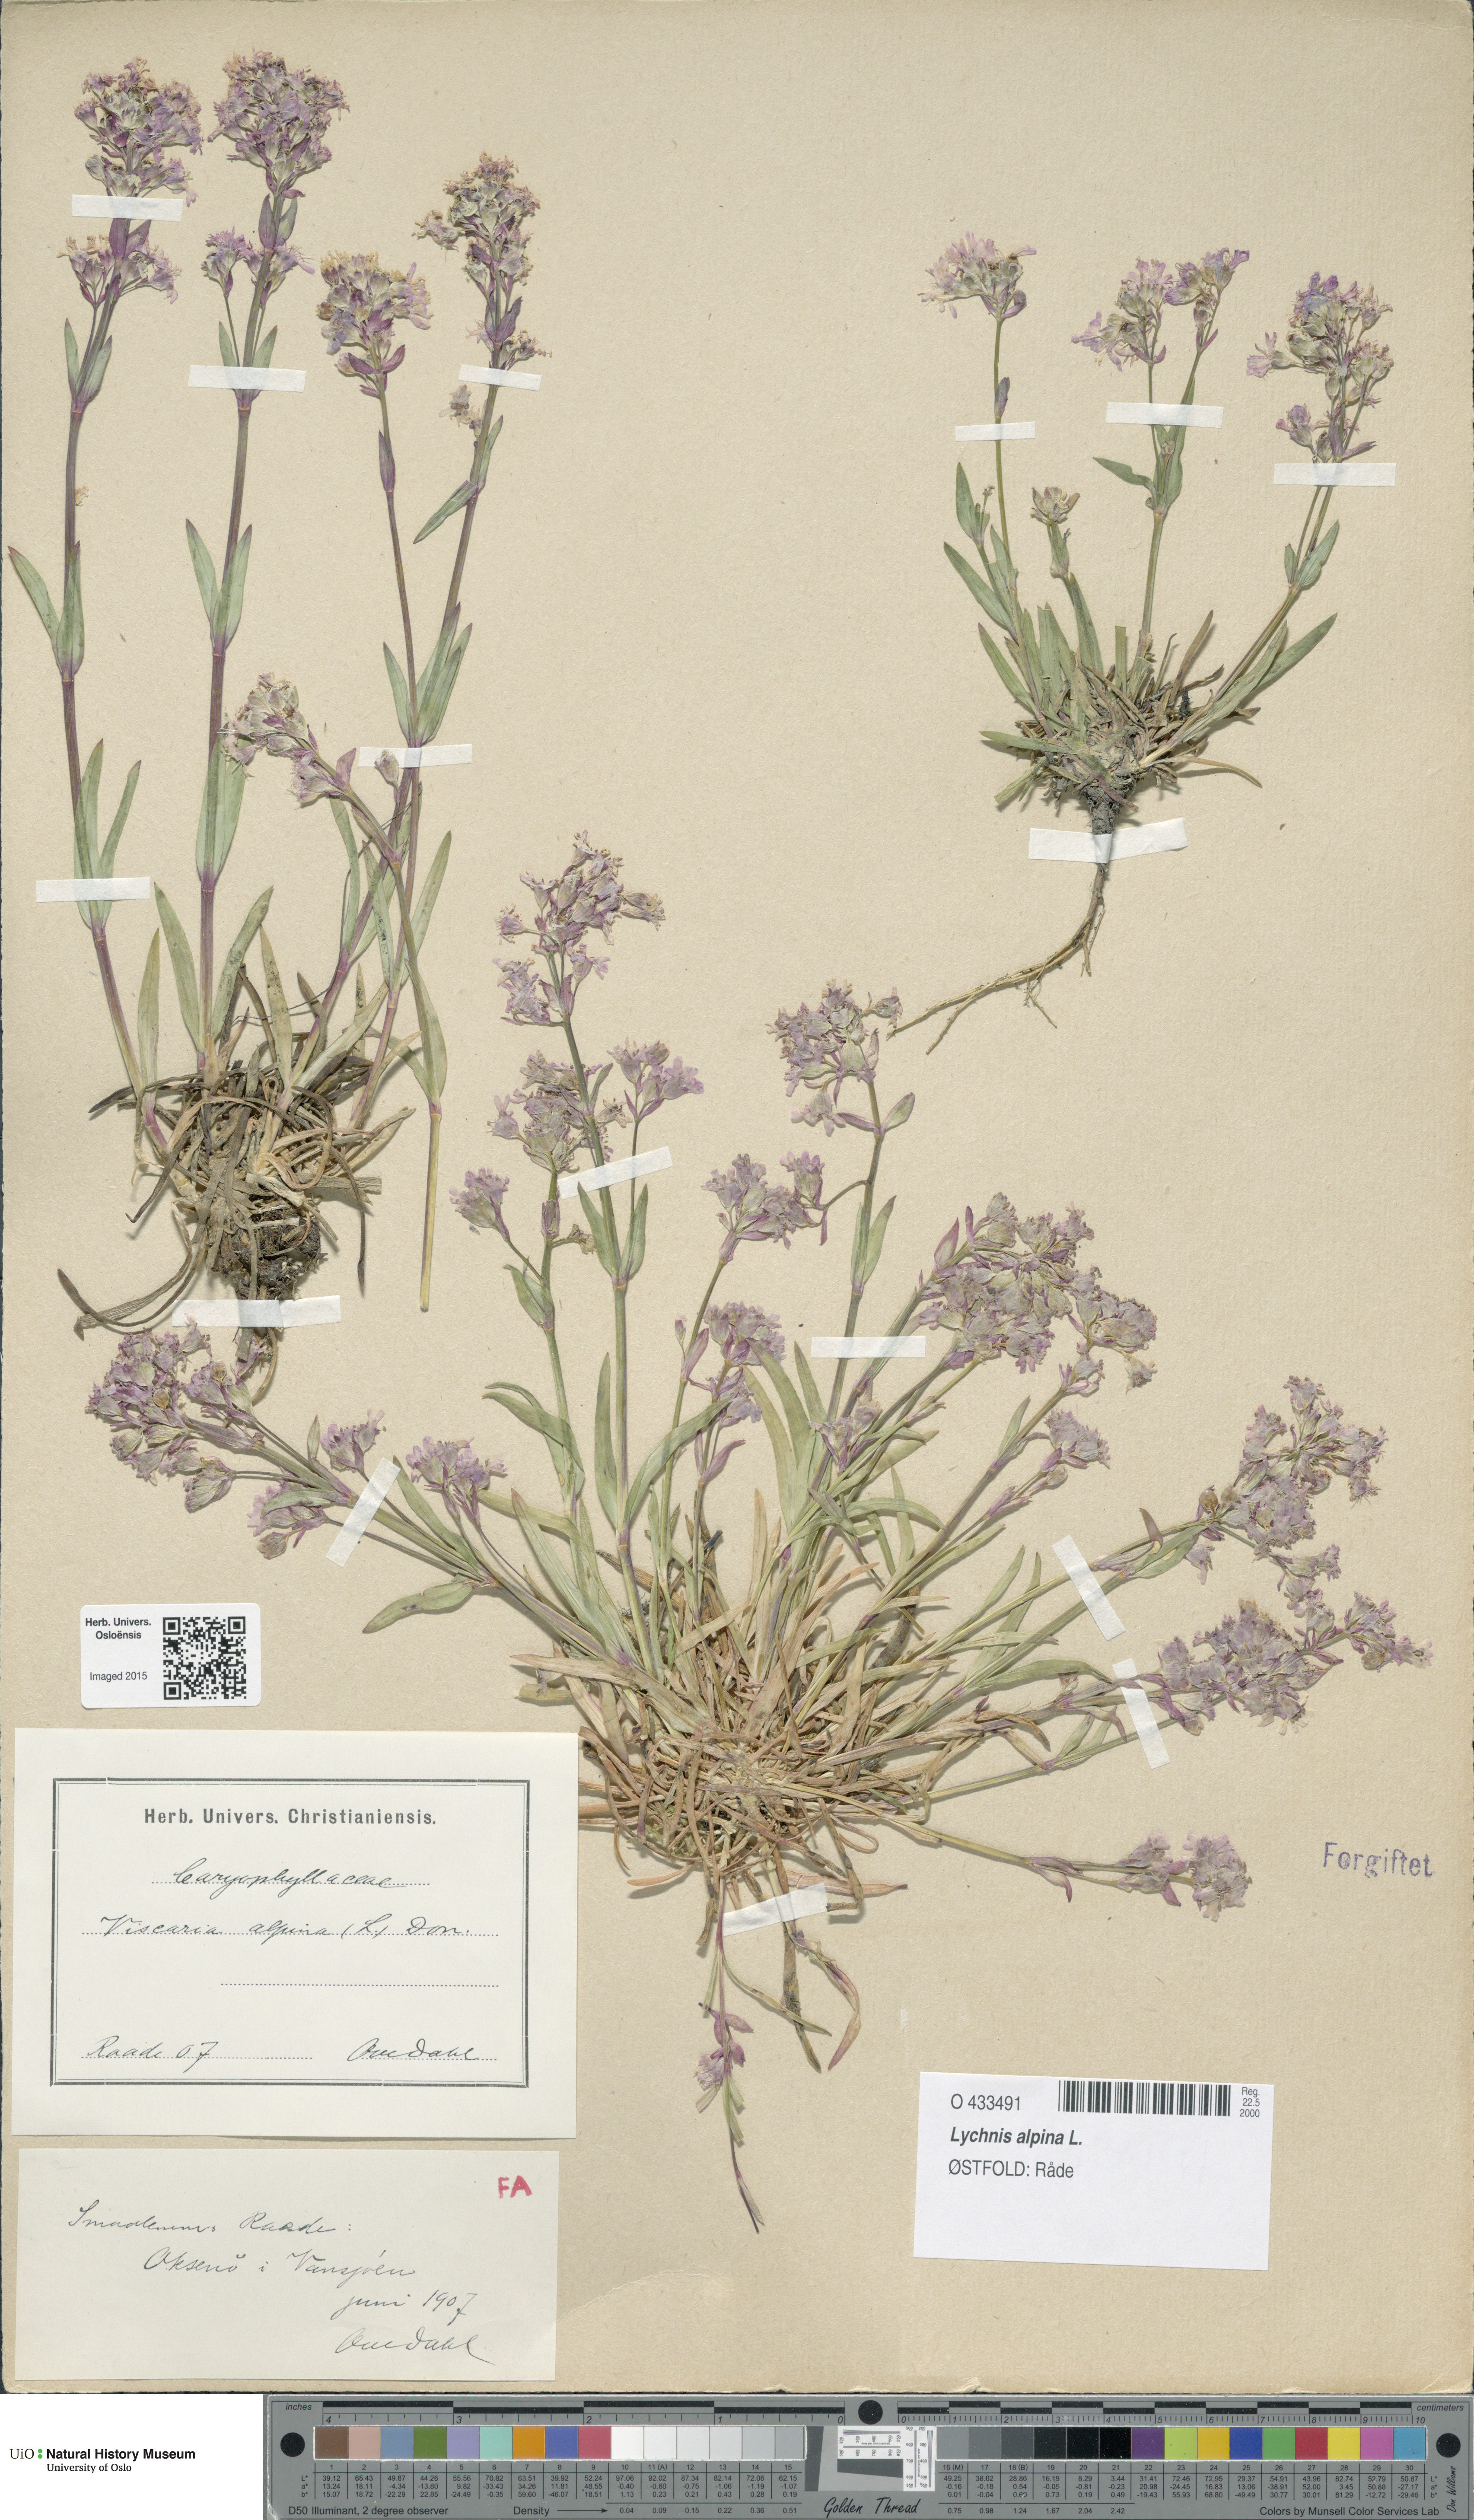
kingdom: Plantae
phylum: Tracheophyta
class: Magnoliopsida
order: Caryophyllales
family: Caryophyllaceae
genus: Viscaria
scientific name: Viscaria alpina
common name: Alpine campion
